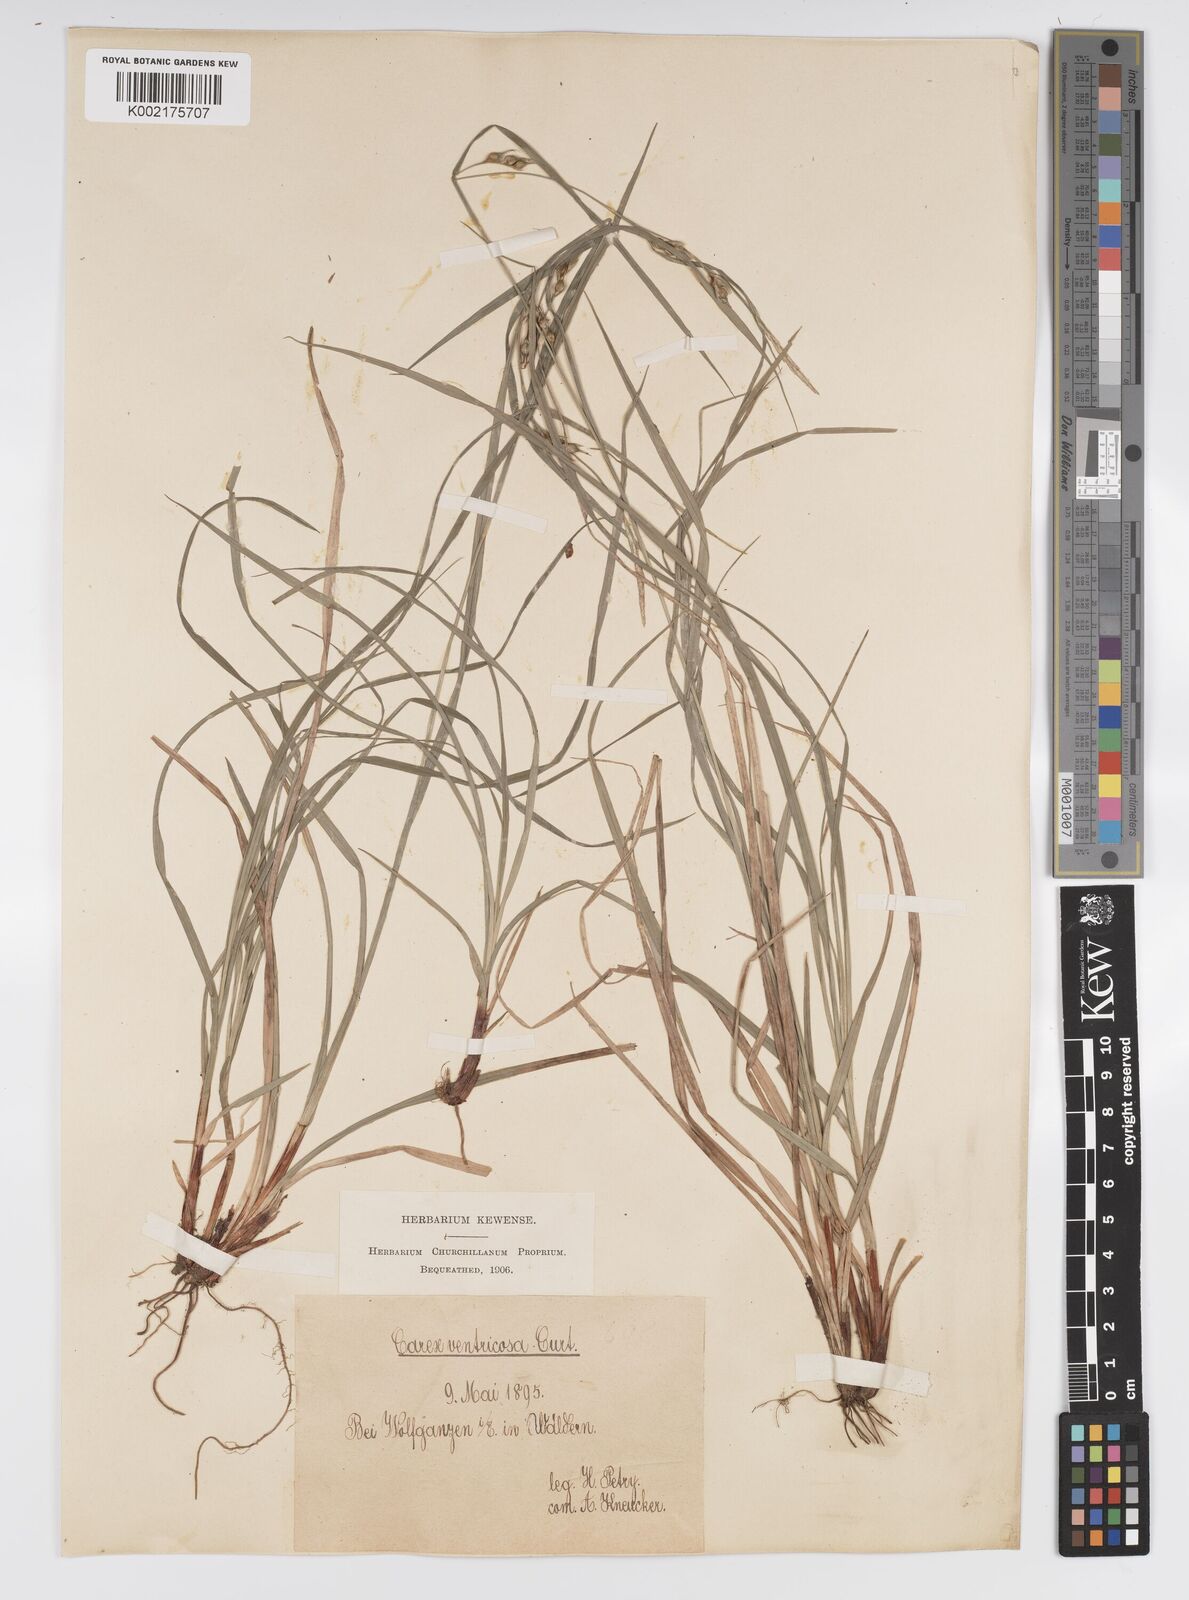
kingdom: Plantae
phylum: Tracheophyta
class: Liliopsida
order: Poales
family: Cyperaceae
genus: Carex
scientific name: Carex
